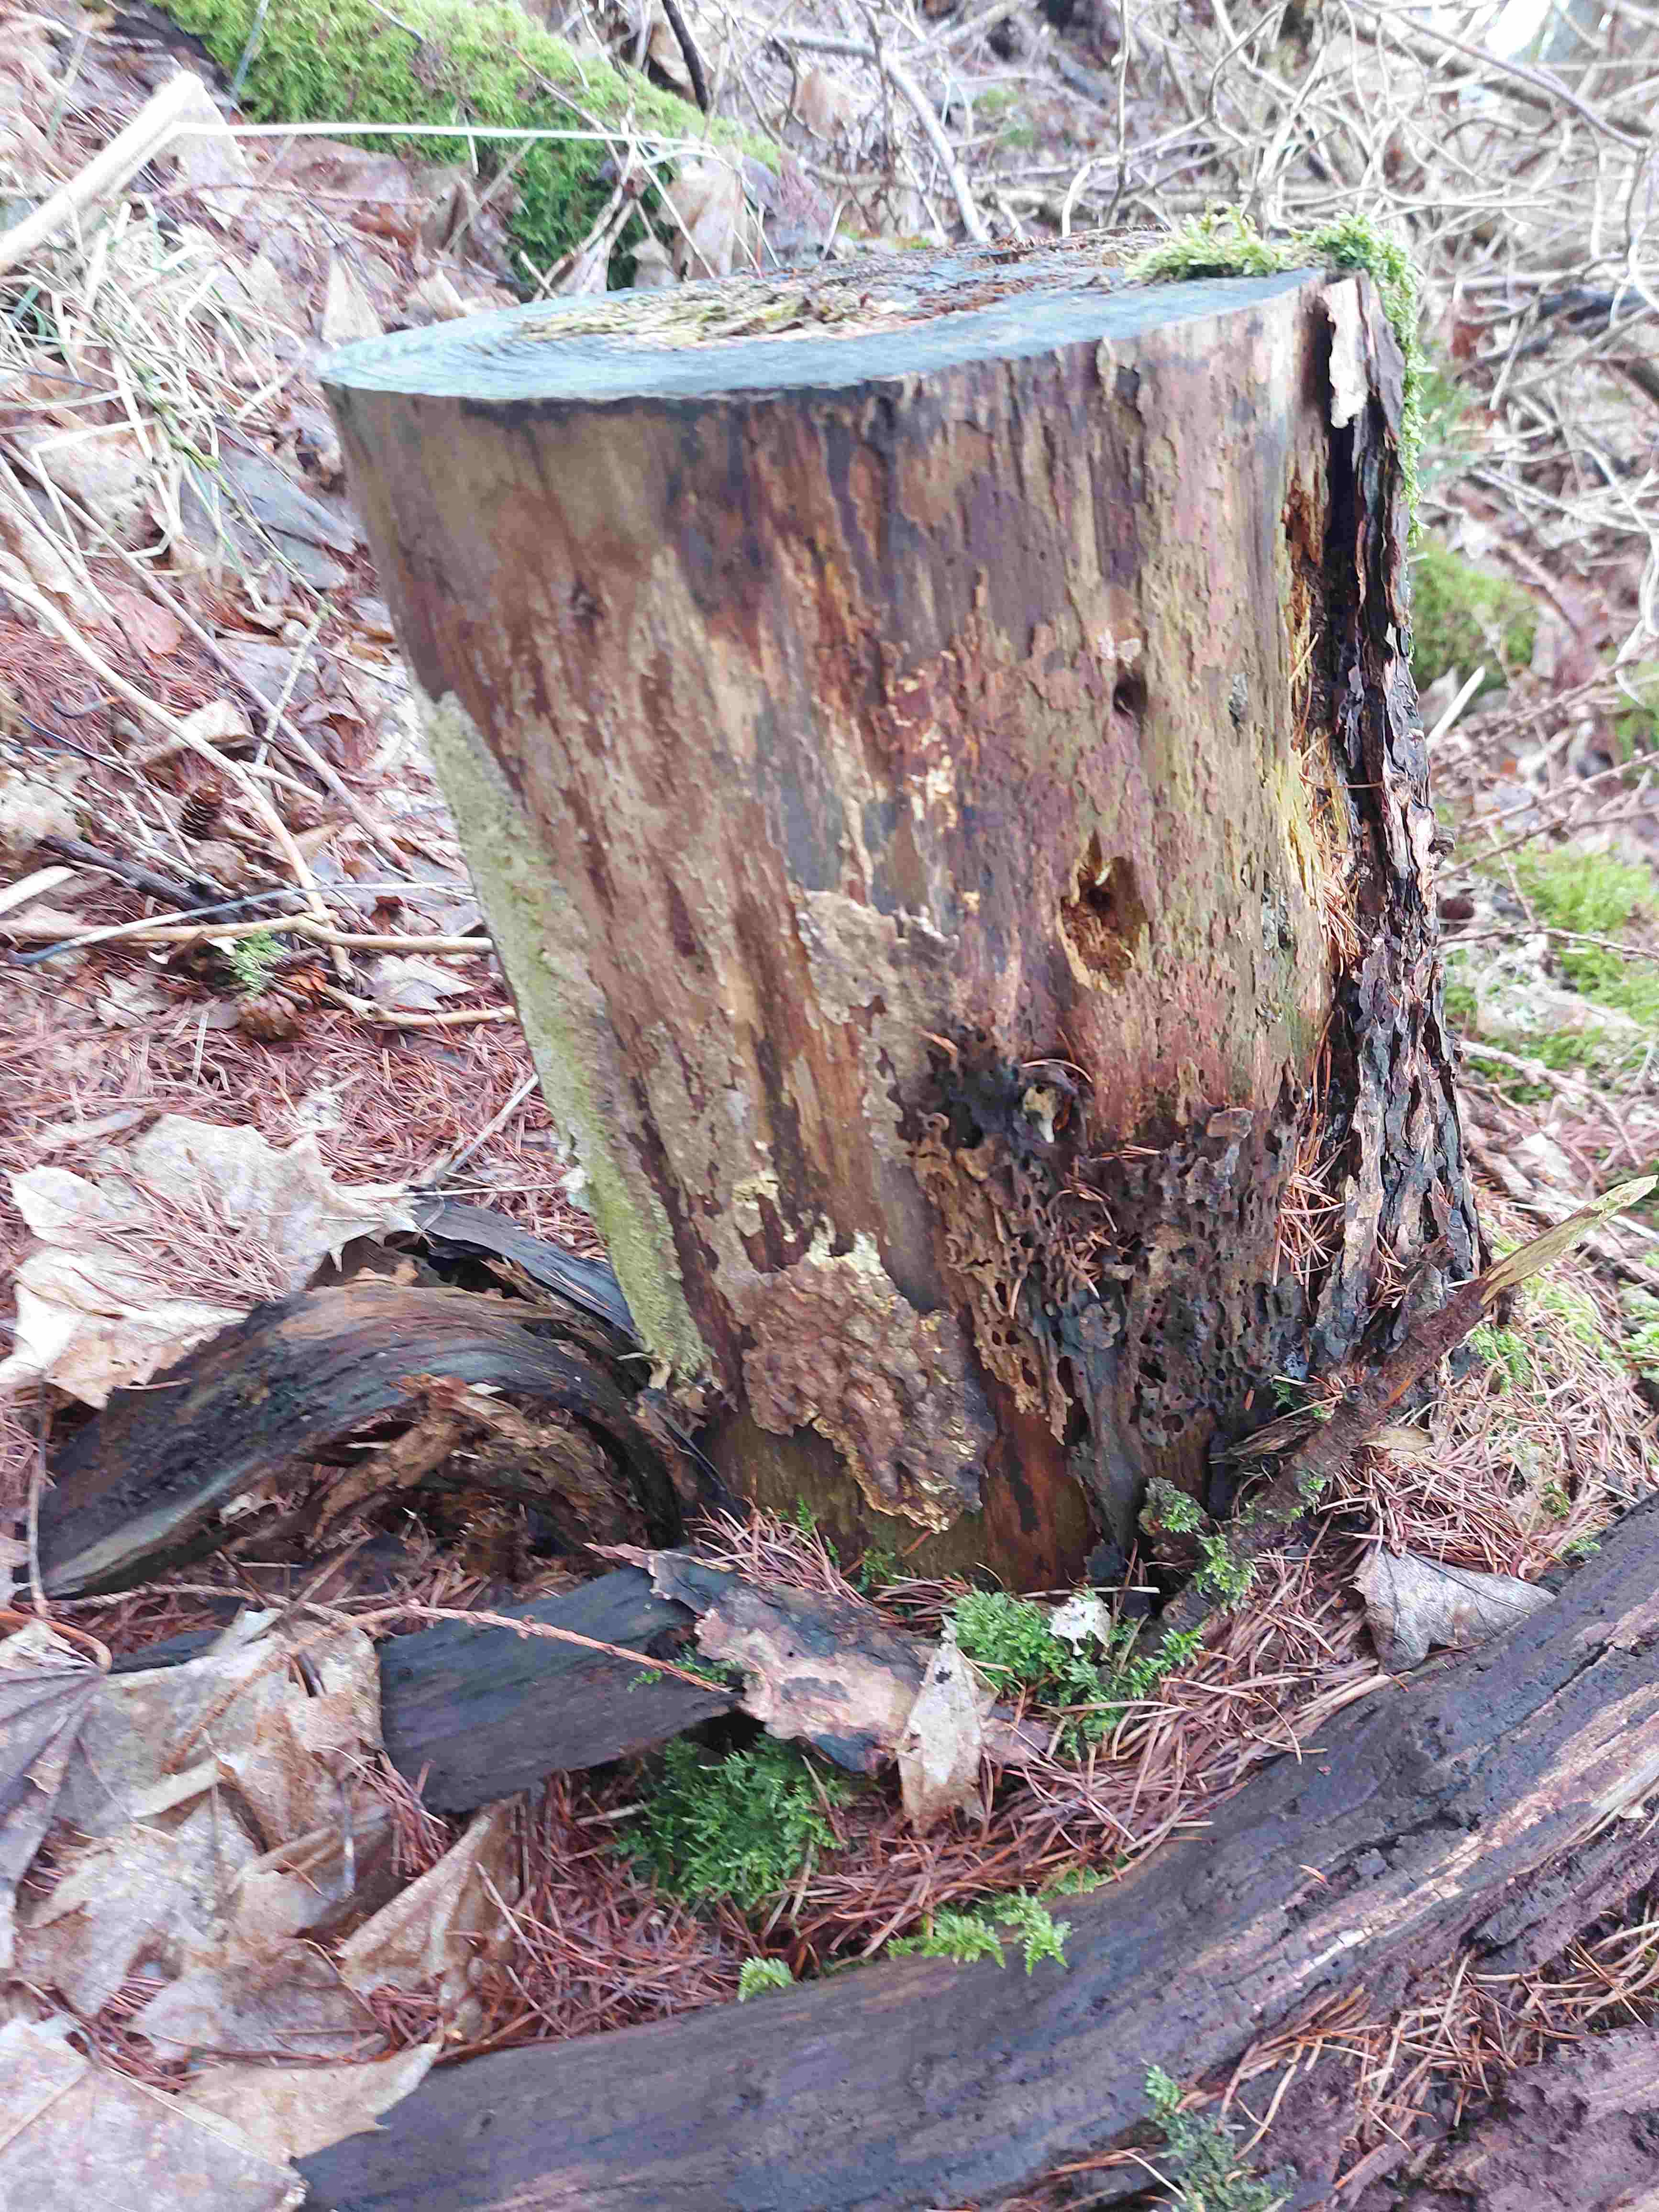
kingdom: Fungi
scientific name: Fungi
